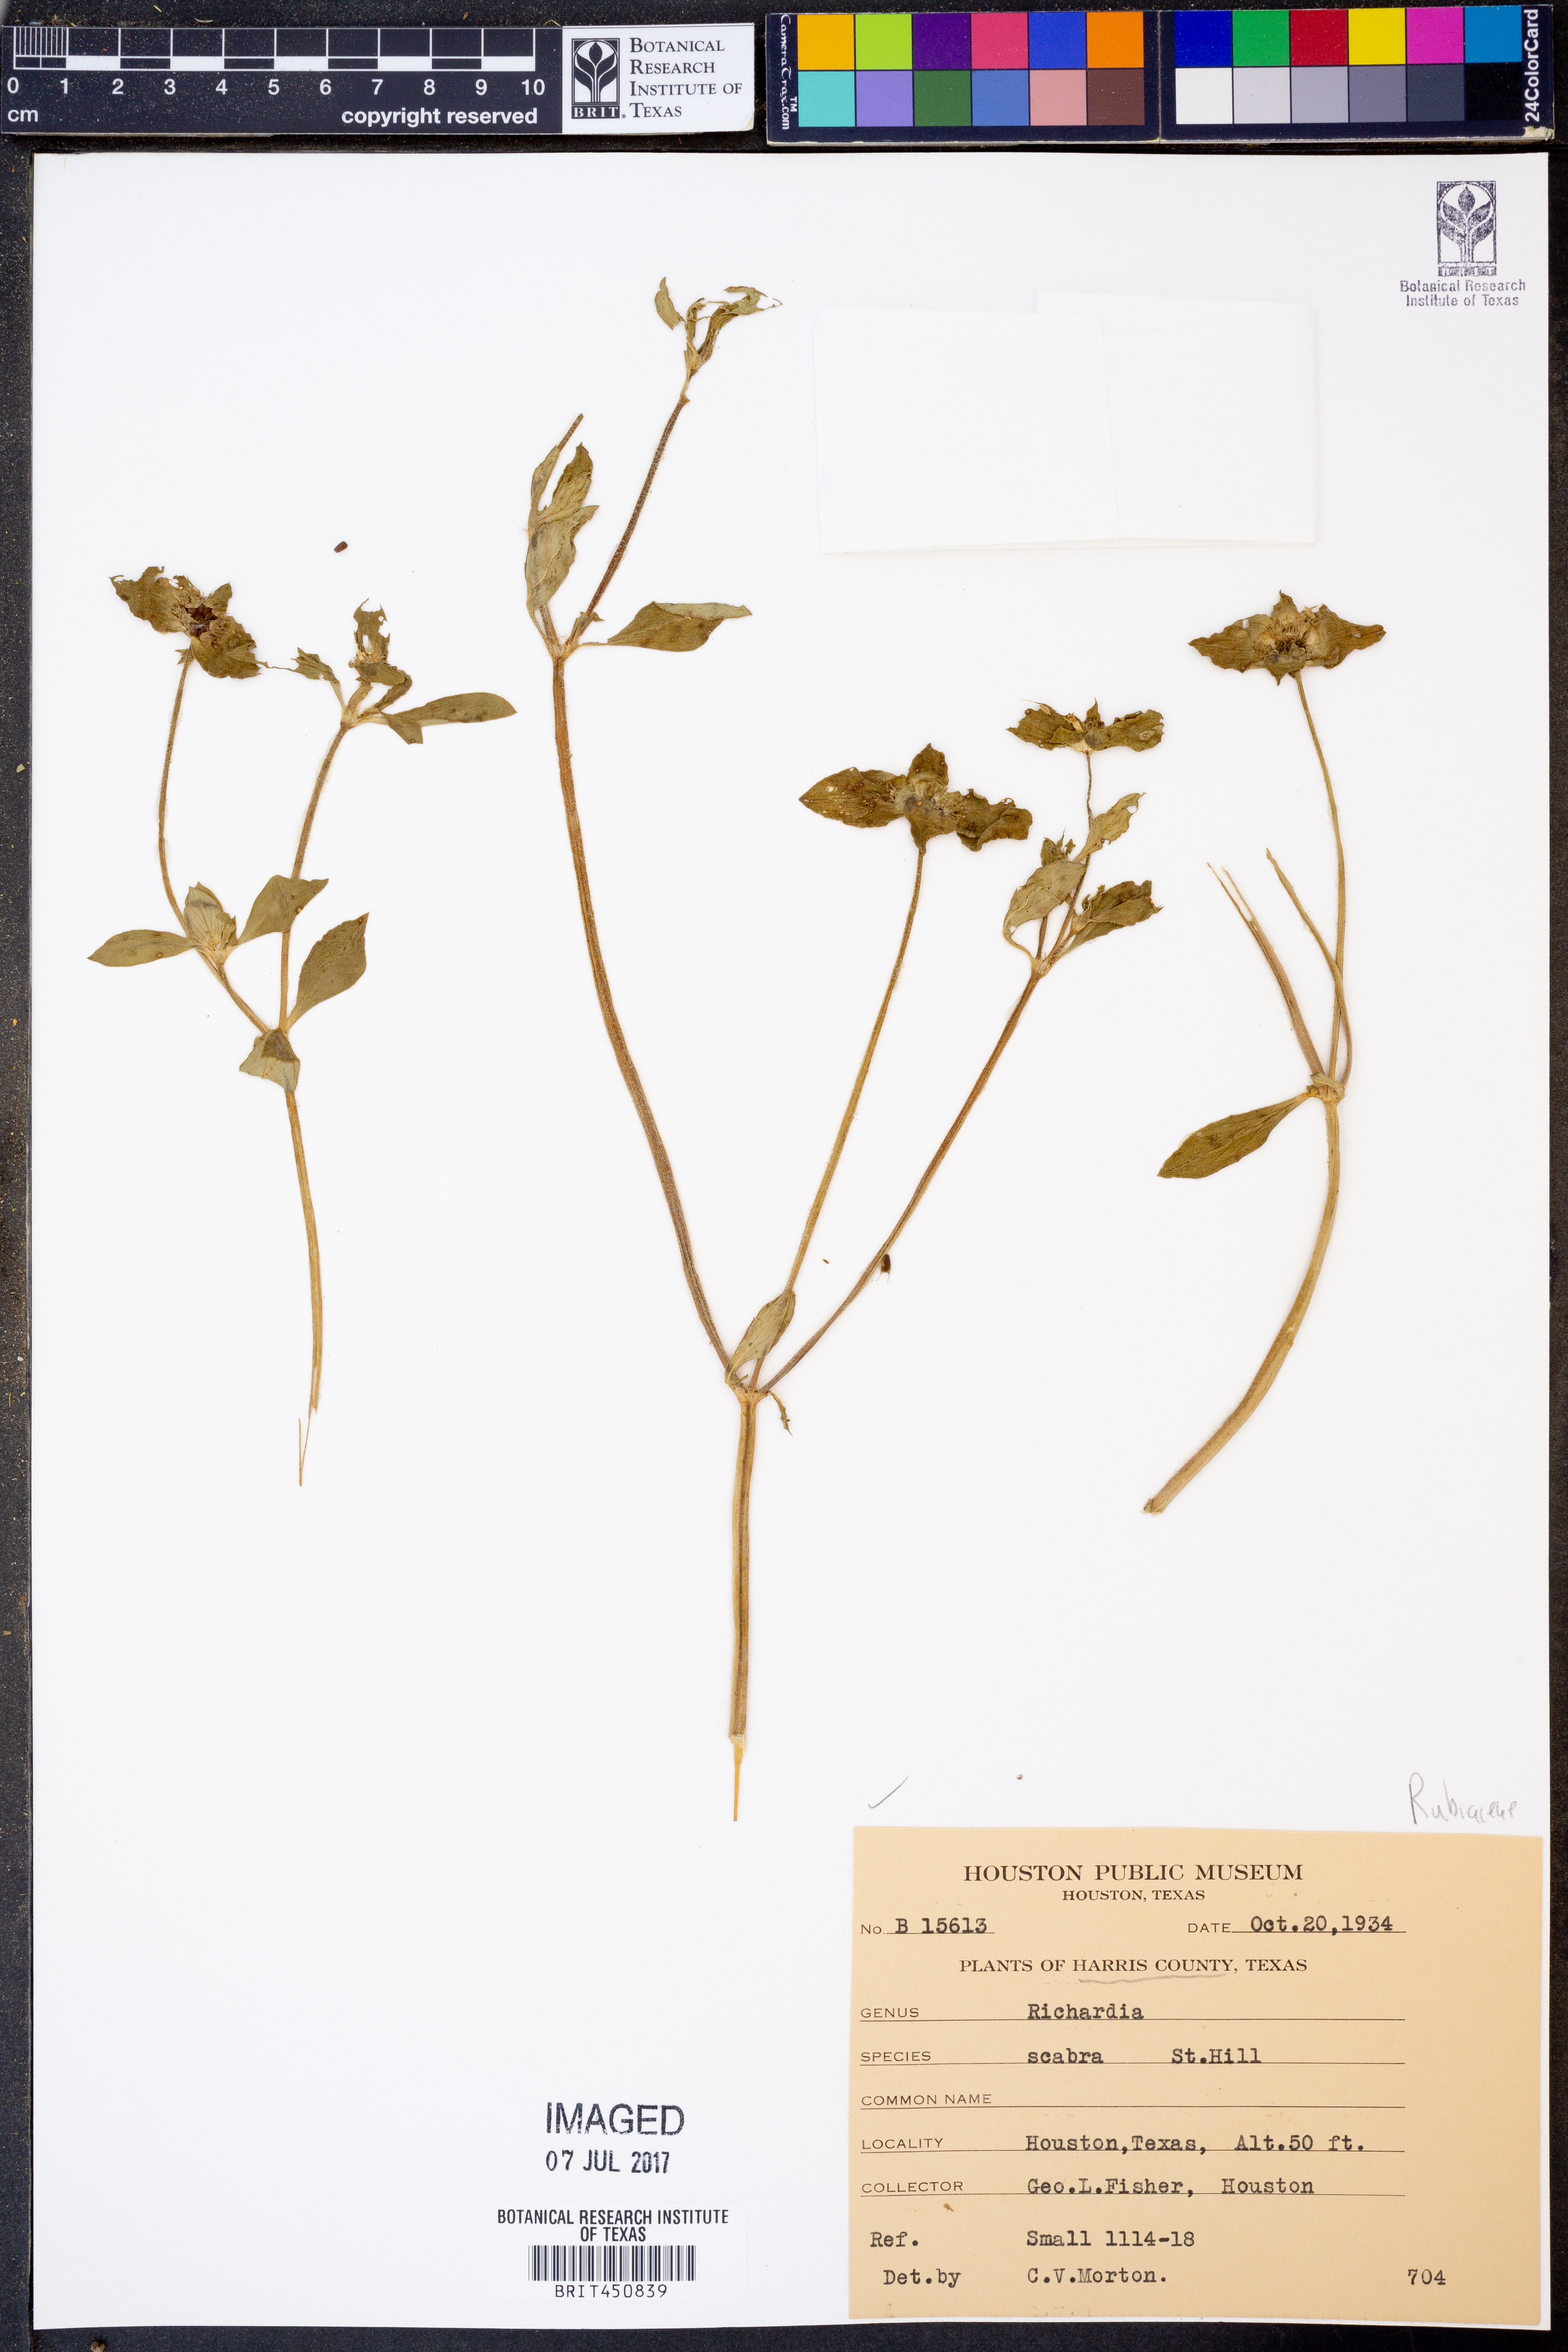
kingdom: Plantae
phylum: Tracheophyta
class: Magnoliopsida
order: Gentianales
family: Rubiaceae
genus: Richardia
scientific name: Richardia scabra
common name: Rough mexican clover
